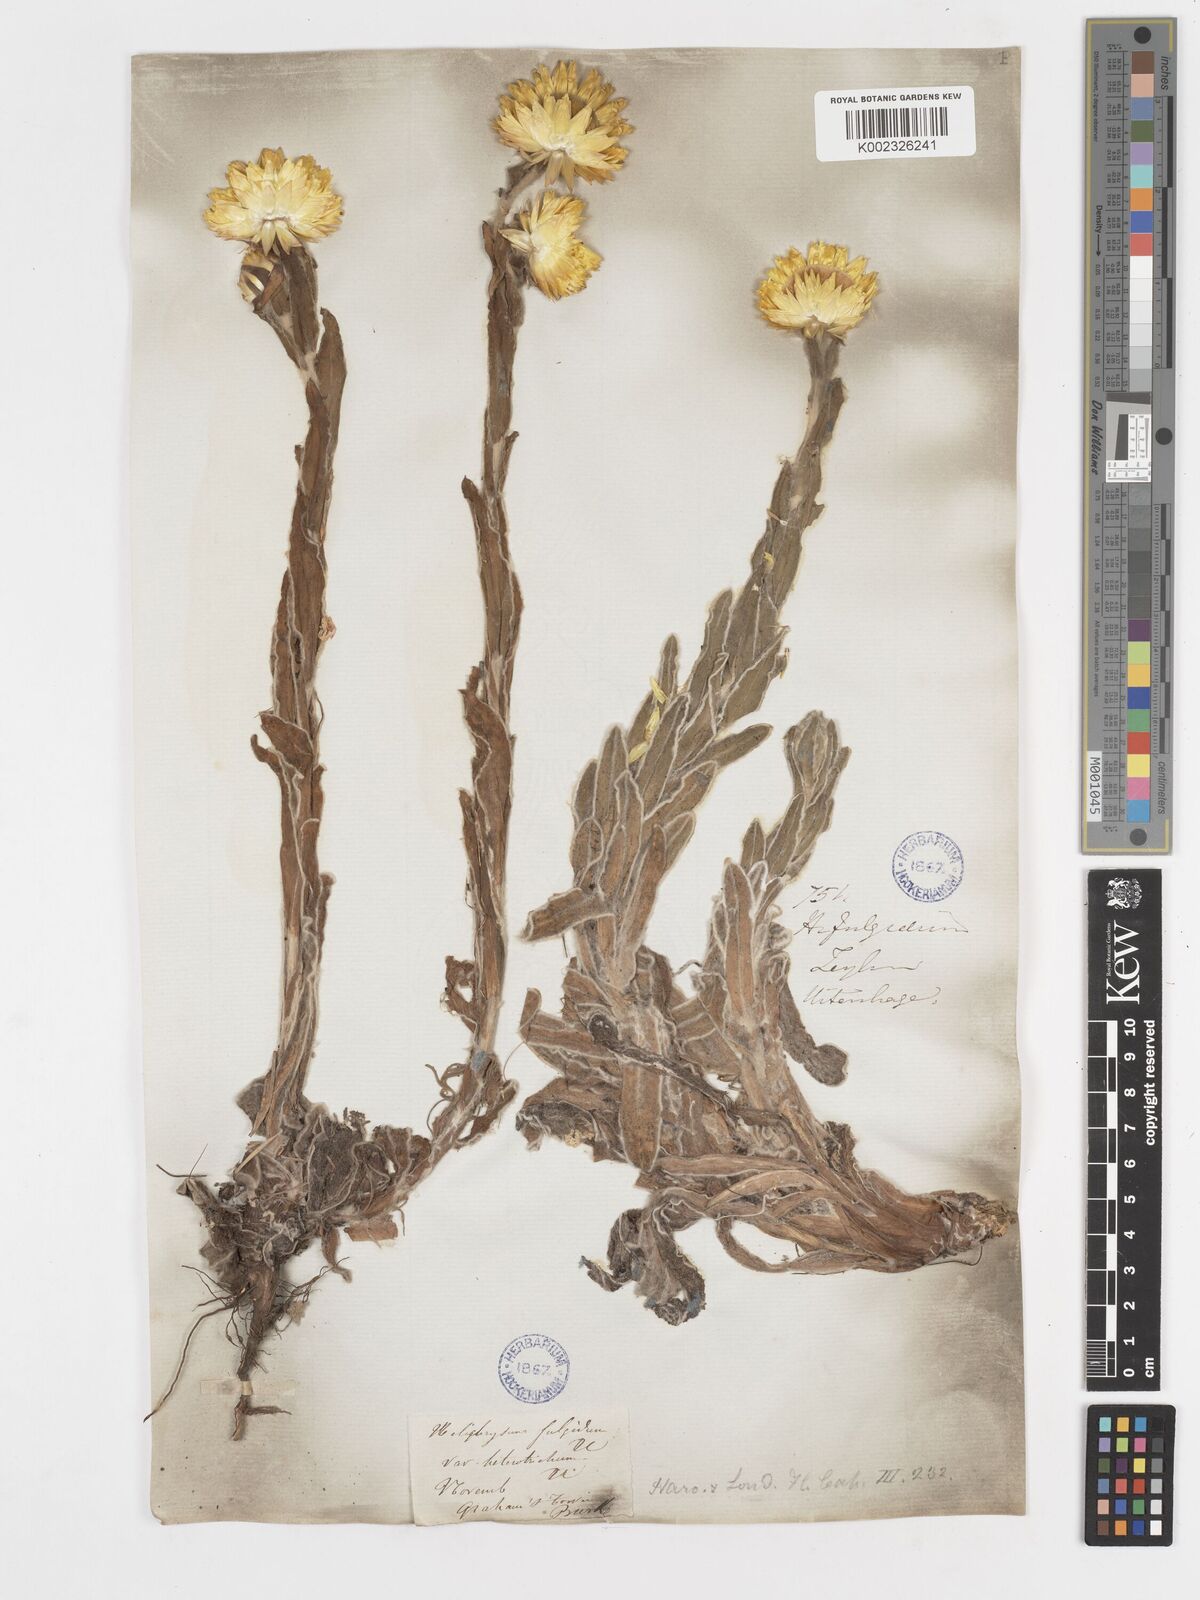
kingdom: Plantae
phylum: Tracheophyta
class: Magnoliopsida
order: Asterales
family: Asteraceae
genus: Helichrysum
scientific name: Helichrysum aureum
